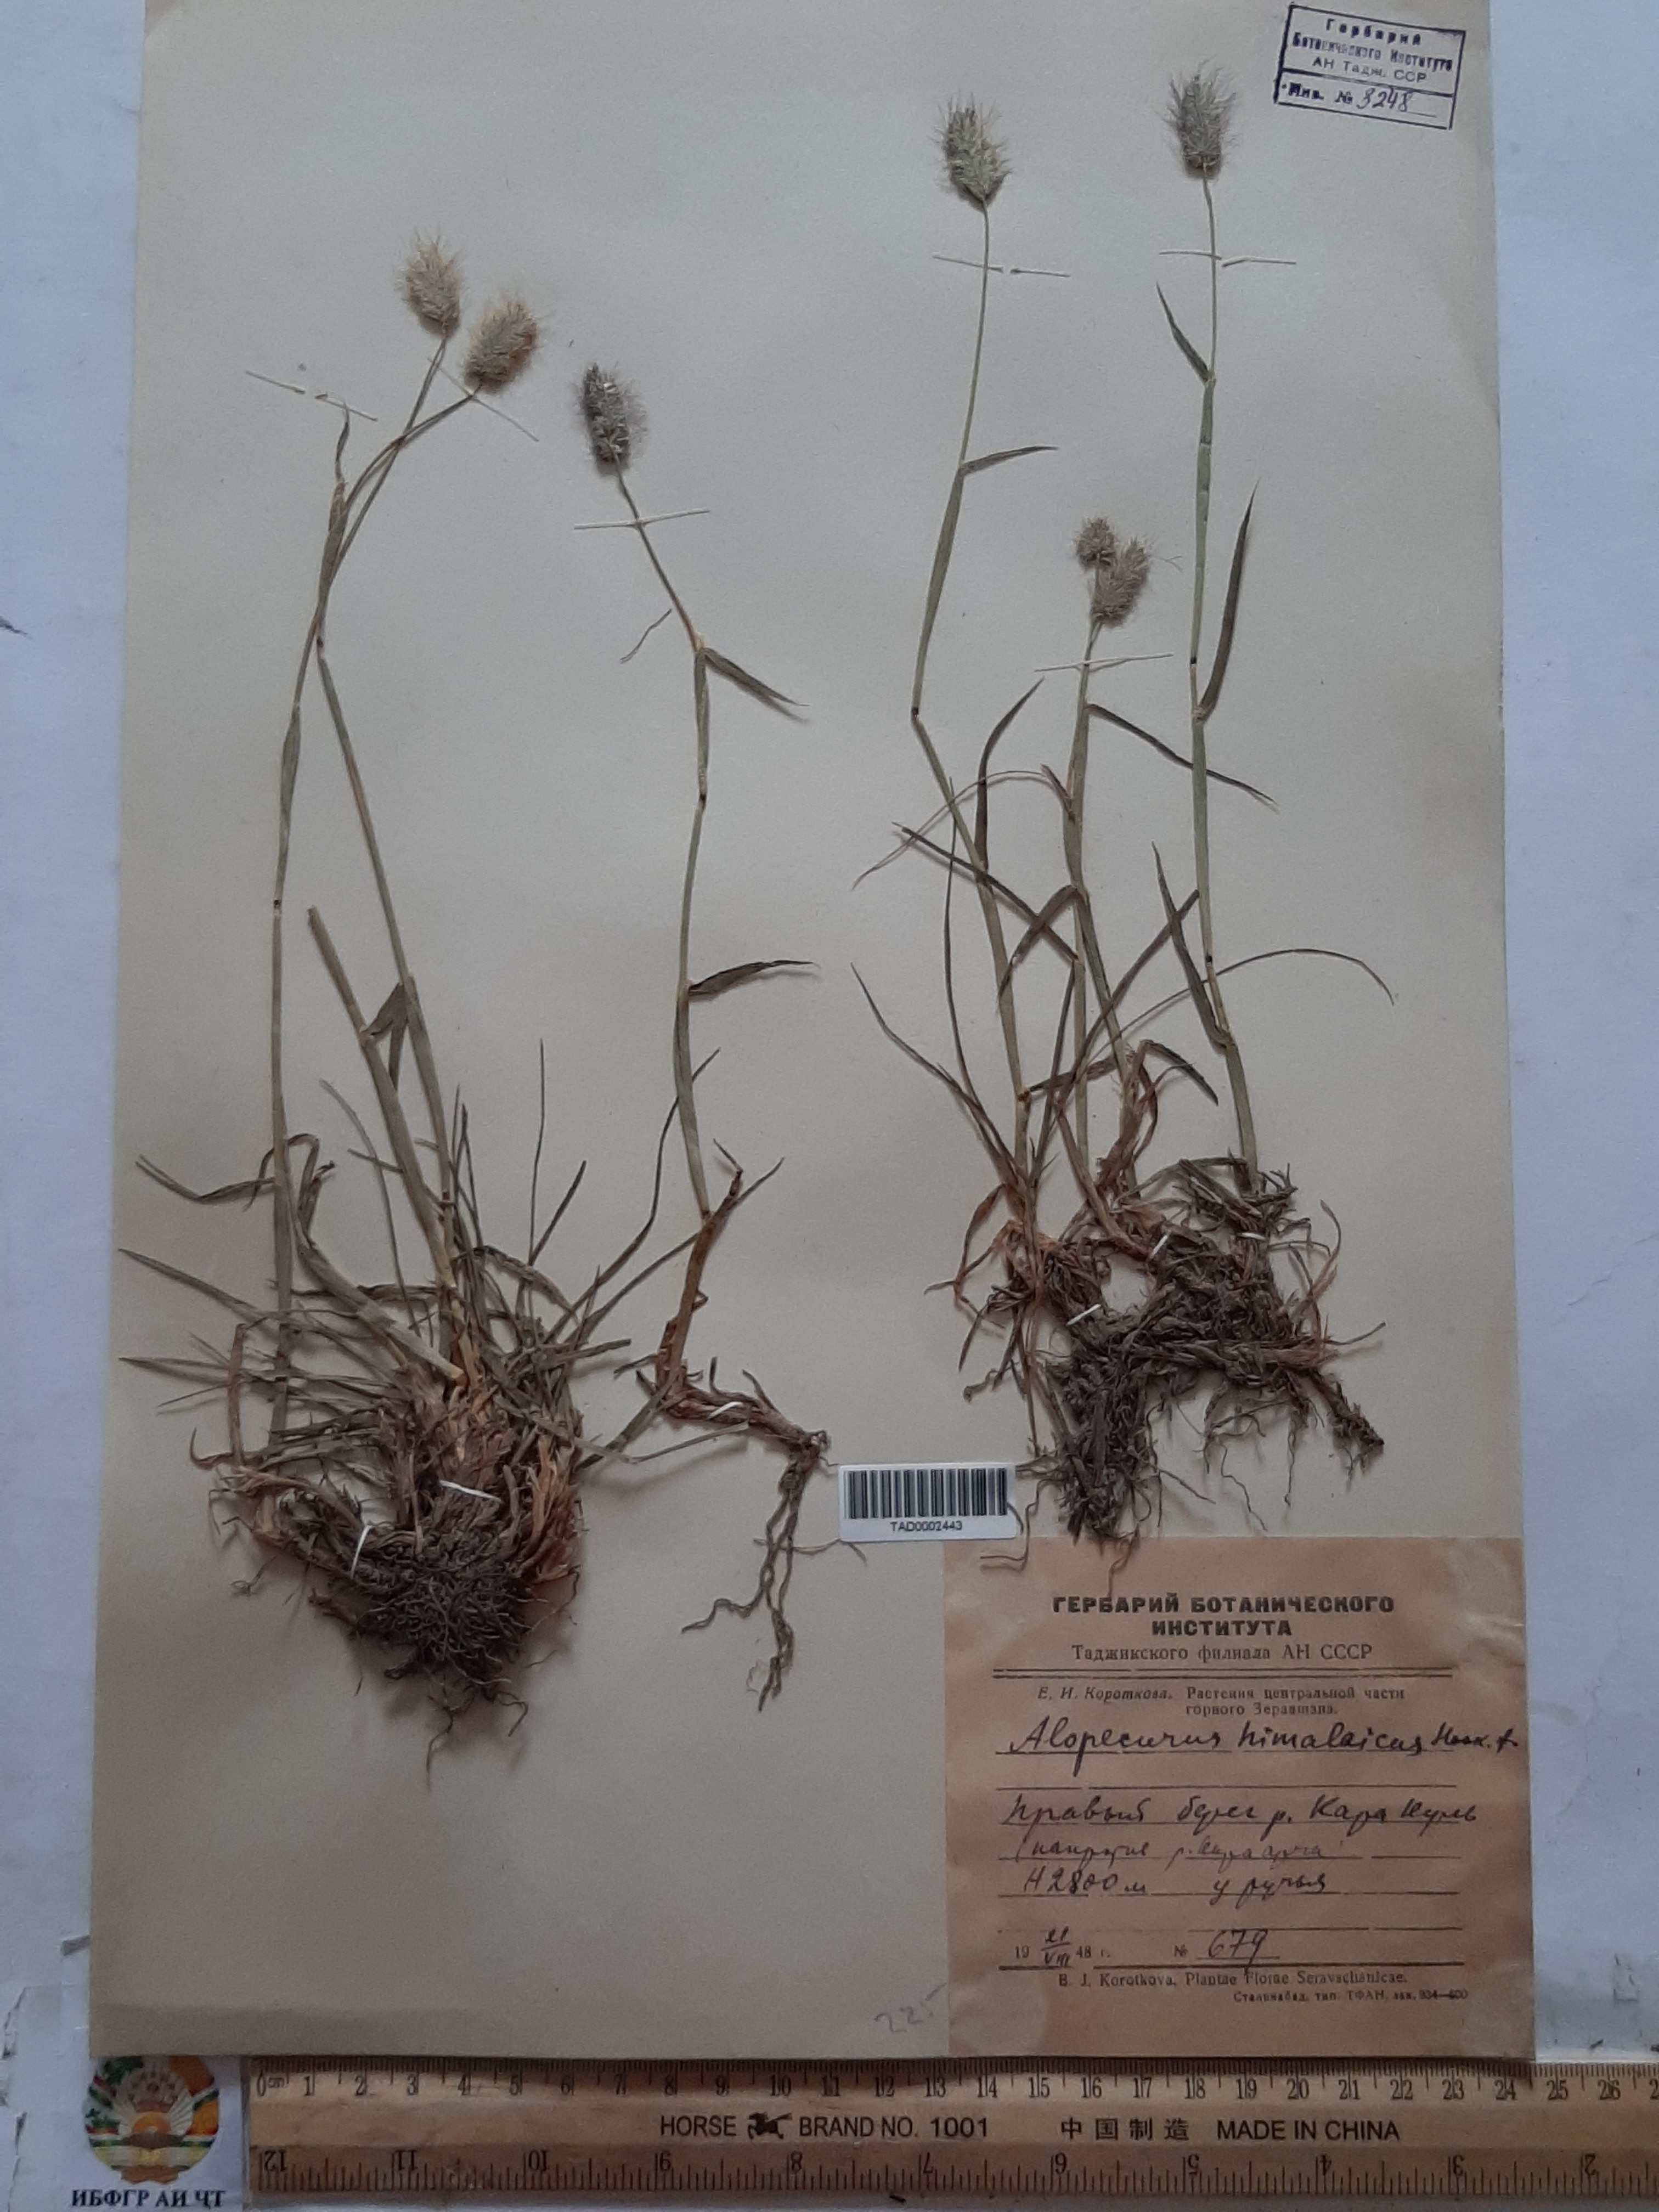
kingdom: Plantae
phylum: Tracheophyta
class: Liliopsida
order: Poales
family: Poaceae
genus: Alopecurus
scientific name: Alopecurus himalaicus
